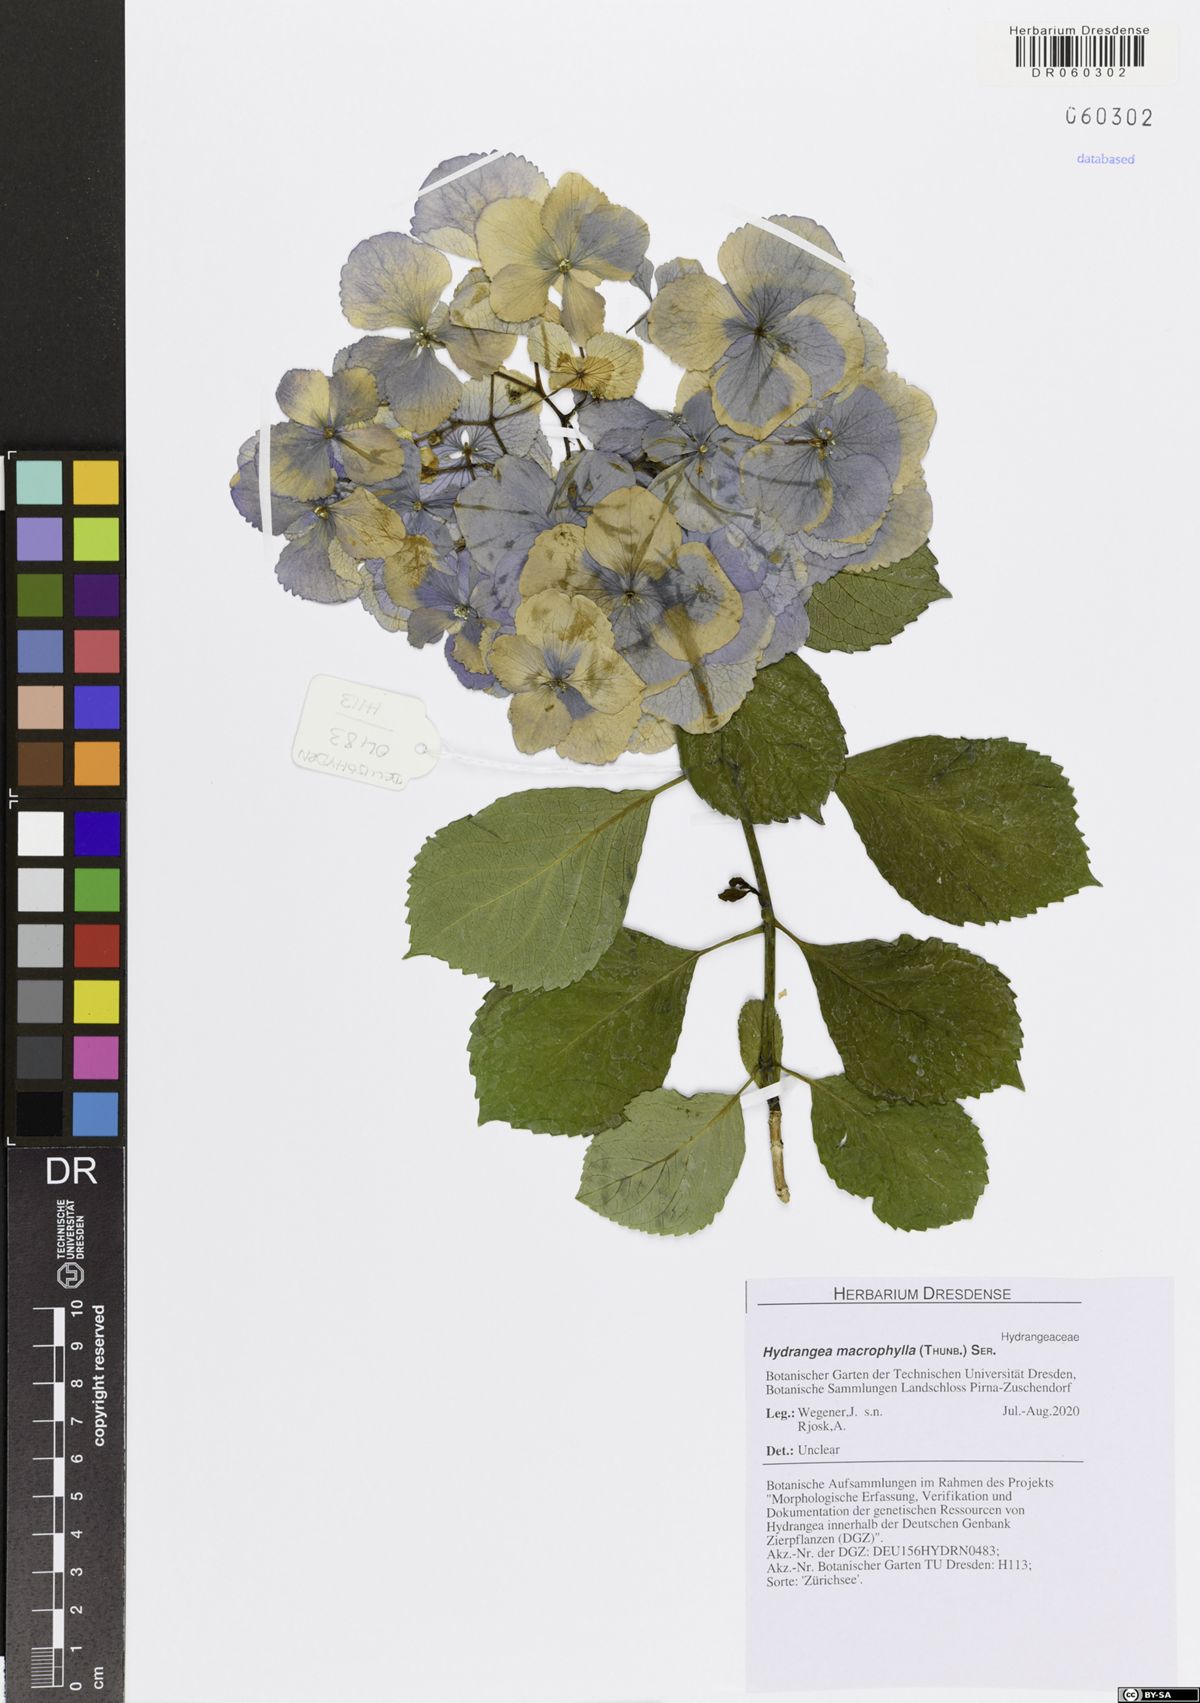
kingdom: Plantae
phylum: Tracheophyta
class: Magnoliopsida
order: Cornales
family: Hydrangeaceae
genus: Hydrangea
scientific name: Hydrangea macrophylla
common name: Hydrangea
